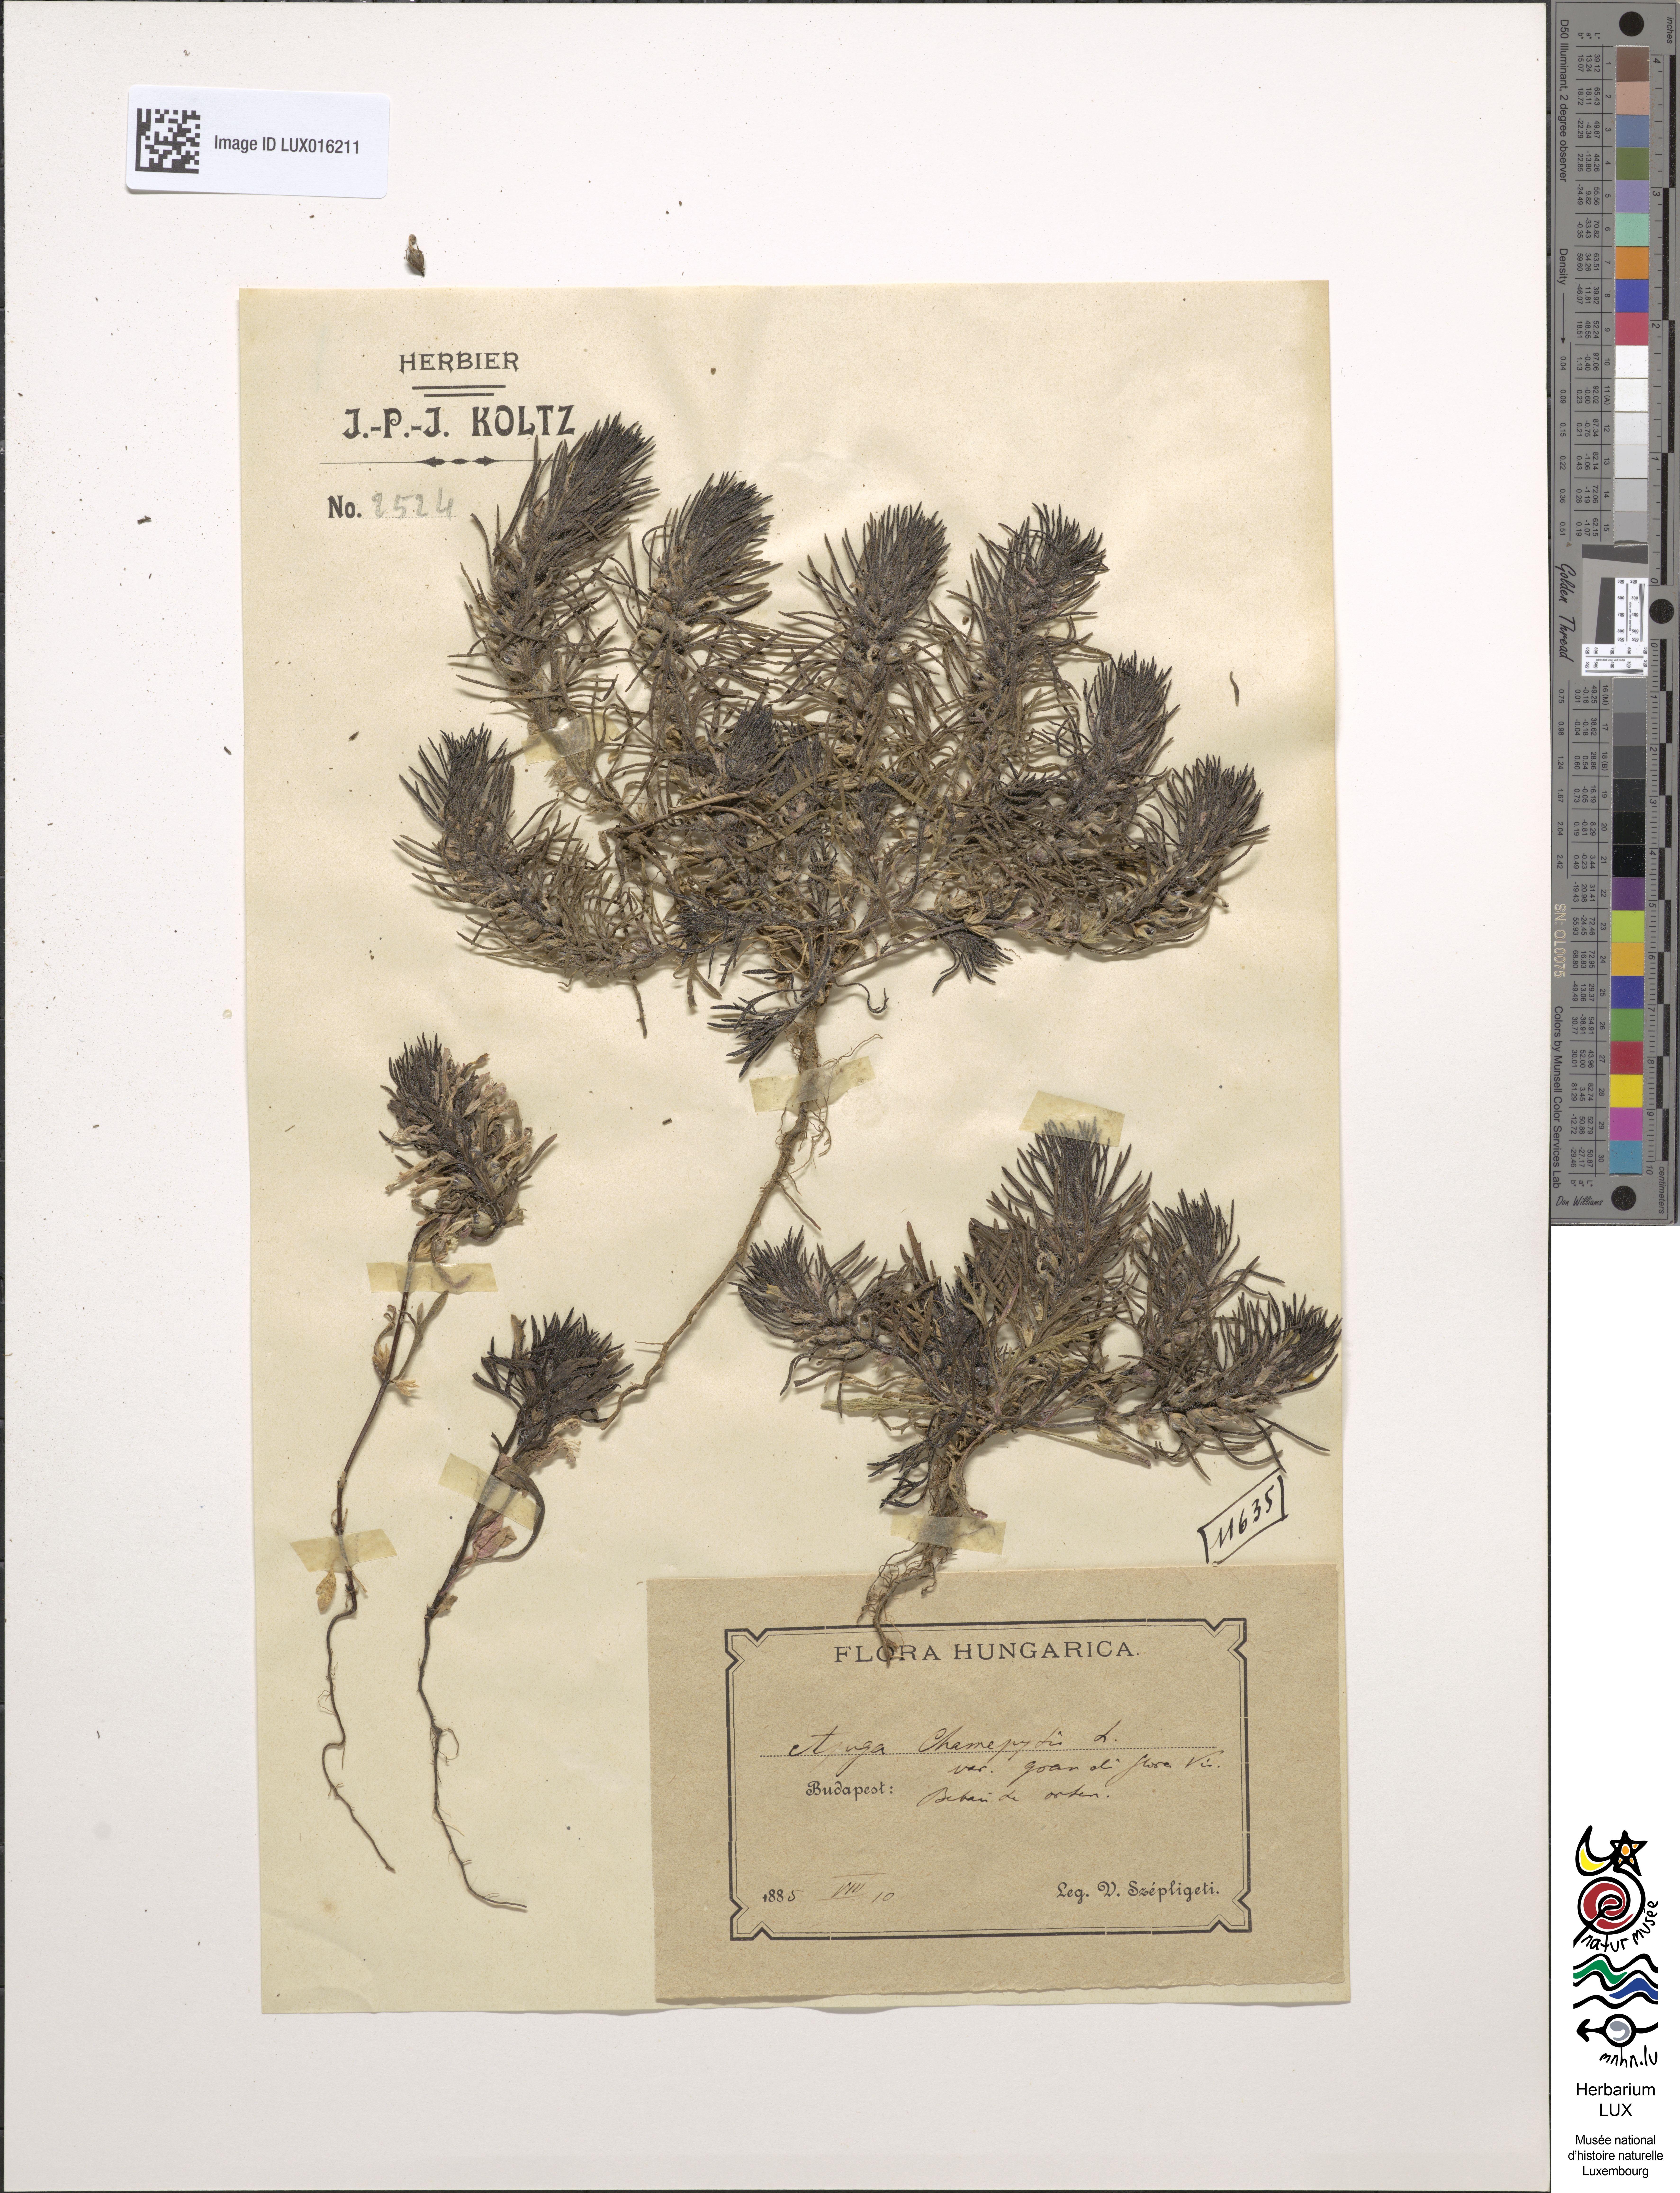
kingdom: Plantae
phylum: Tracheophyta
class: Magnoliopsida
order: Lamiales
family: Lamiaceae
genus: Ajuga
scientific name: Ajuga chamaepitys
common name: Ground-pine
